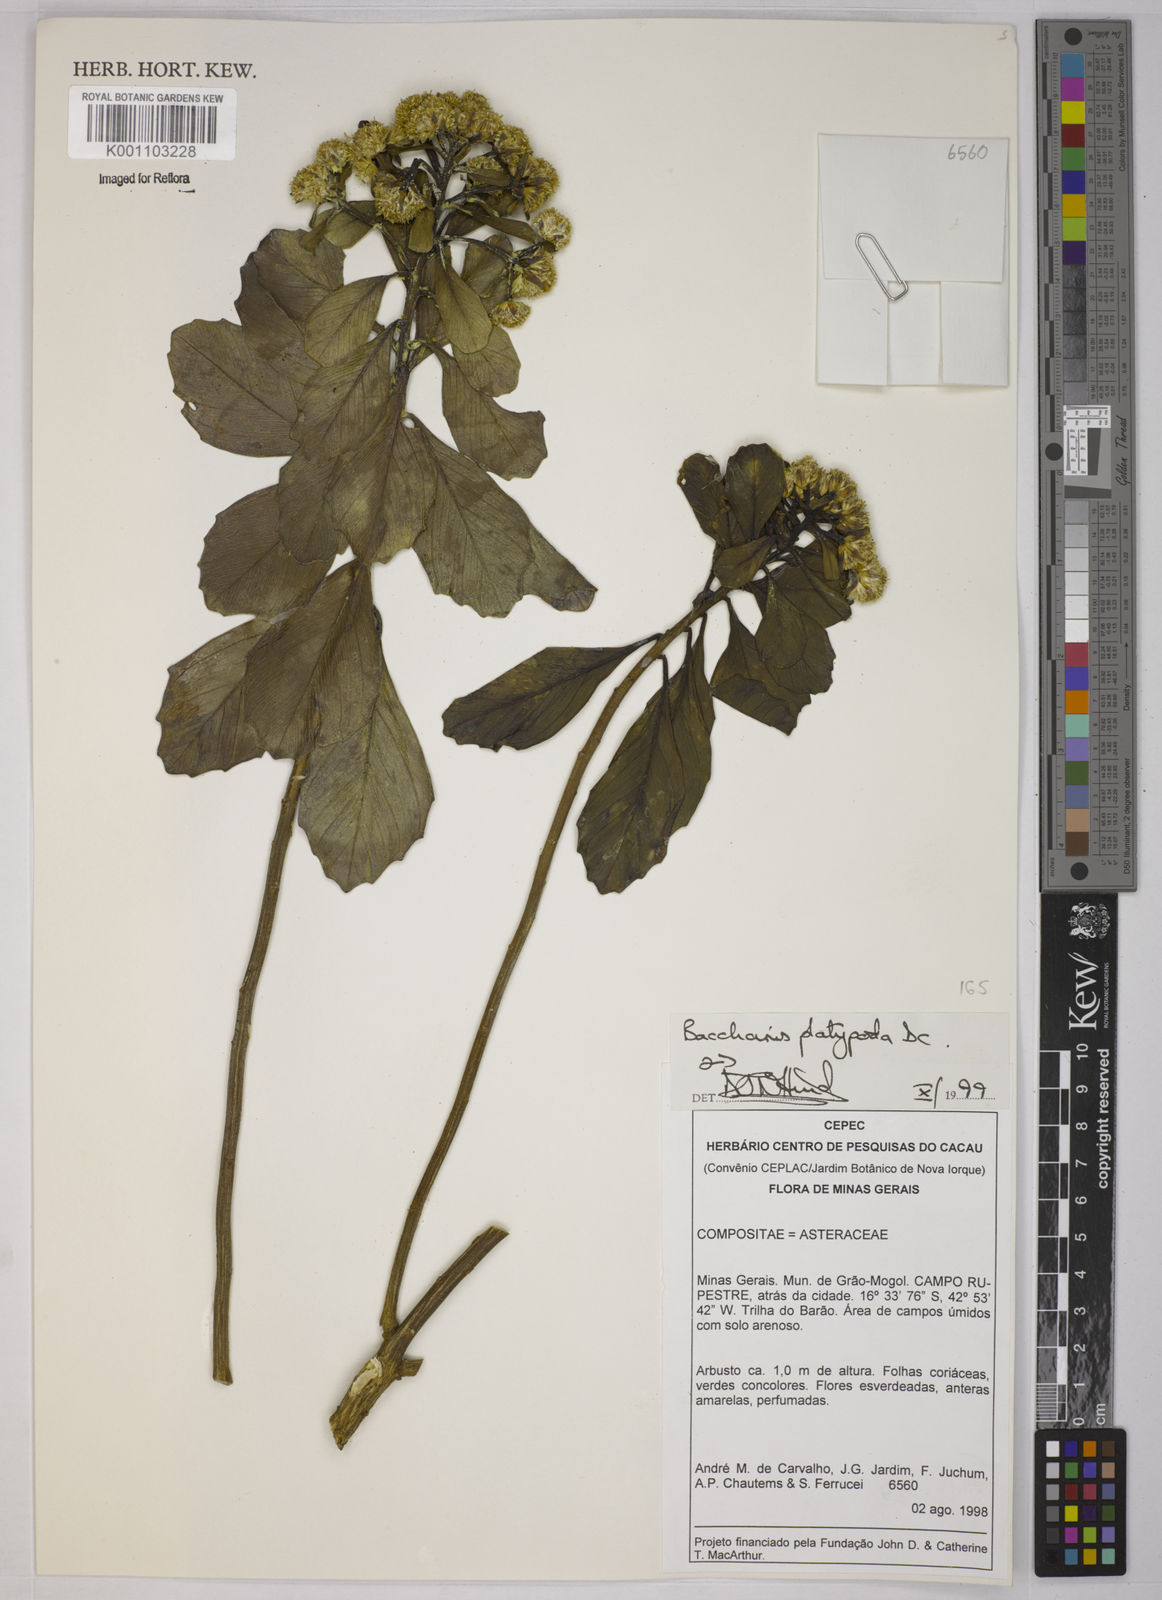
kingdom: Plantae
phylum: Tracheophyta
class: Magnoliopsida
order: Asterales
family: Asteraceae
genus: Baccharis
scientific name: Baccharis platypoda
